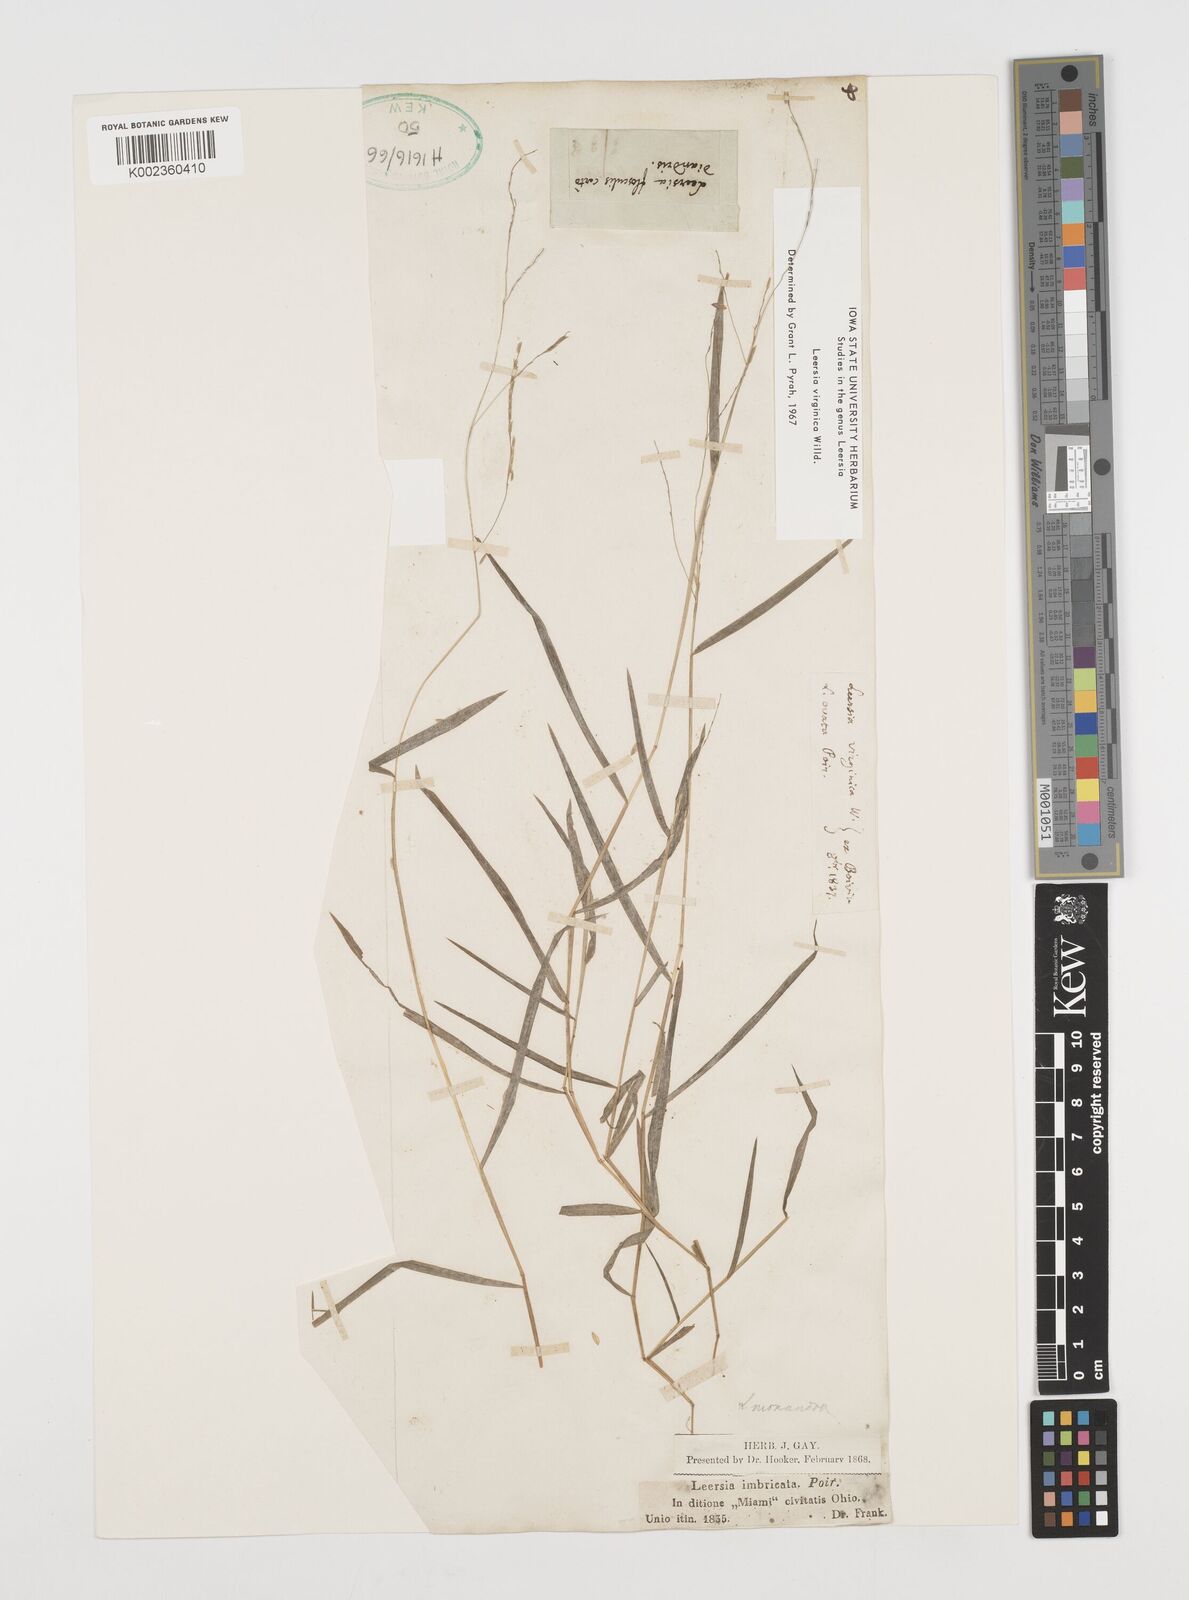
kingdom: Plantae
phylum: Tracheophyta
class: Liliopsida
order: Poales
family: Poaceae
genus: Leersia
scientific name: Leersia virginica
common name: White cutgrass
